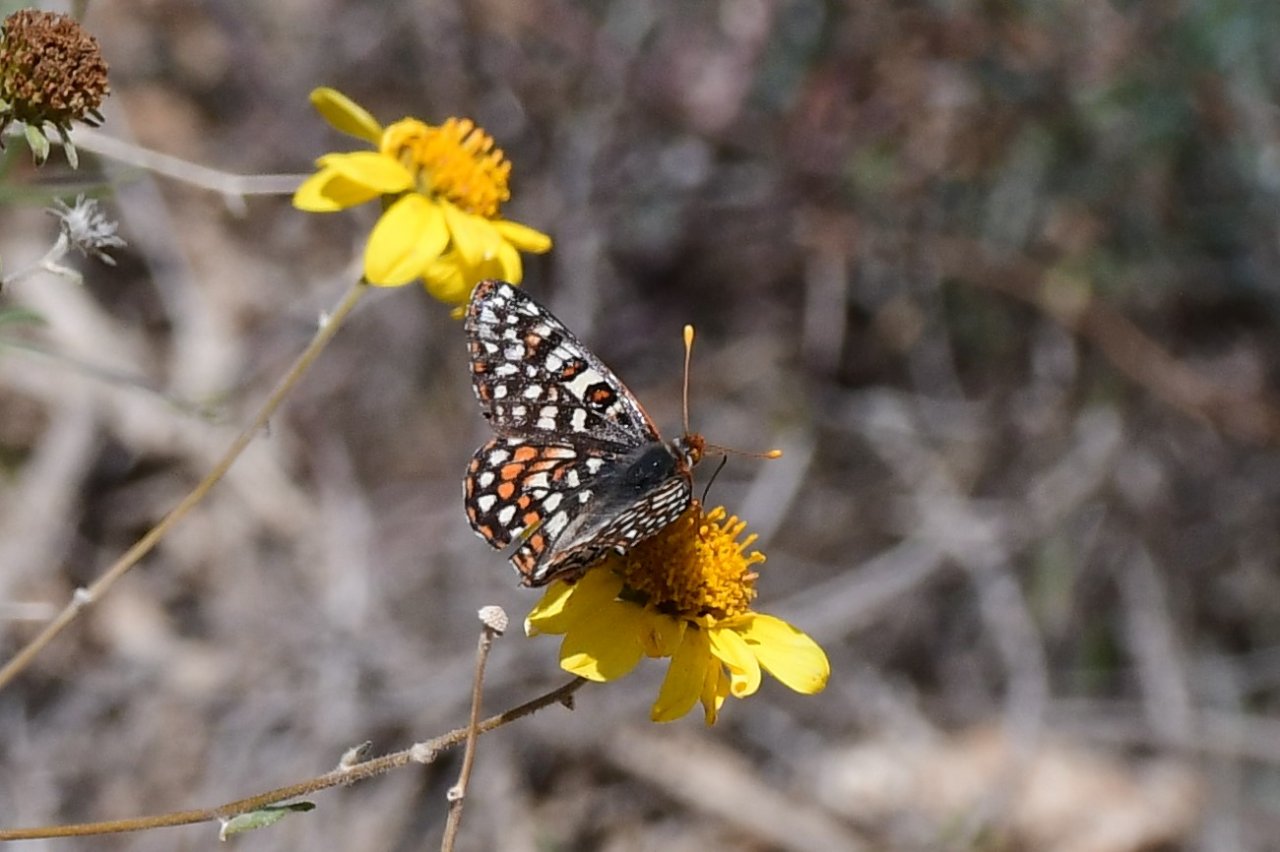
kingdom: Animalia
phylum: Arthropoda
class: Insecta
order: Lepidoptera
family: Nymphalidae
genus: Occidryas
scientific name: Occidryas chalcedona
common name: Chalcedon Checkerspot
